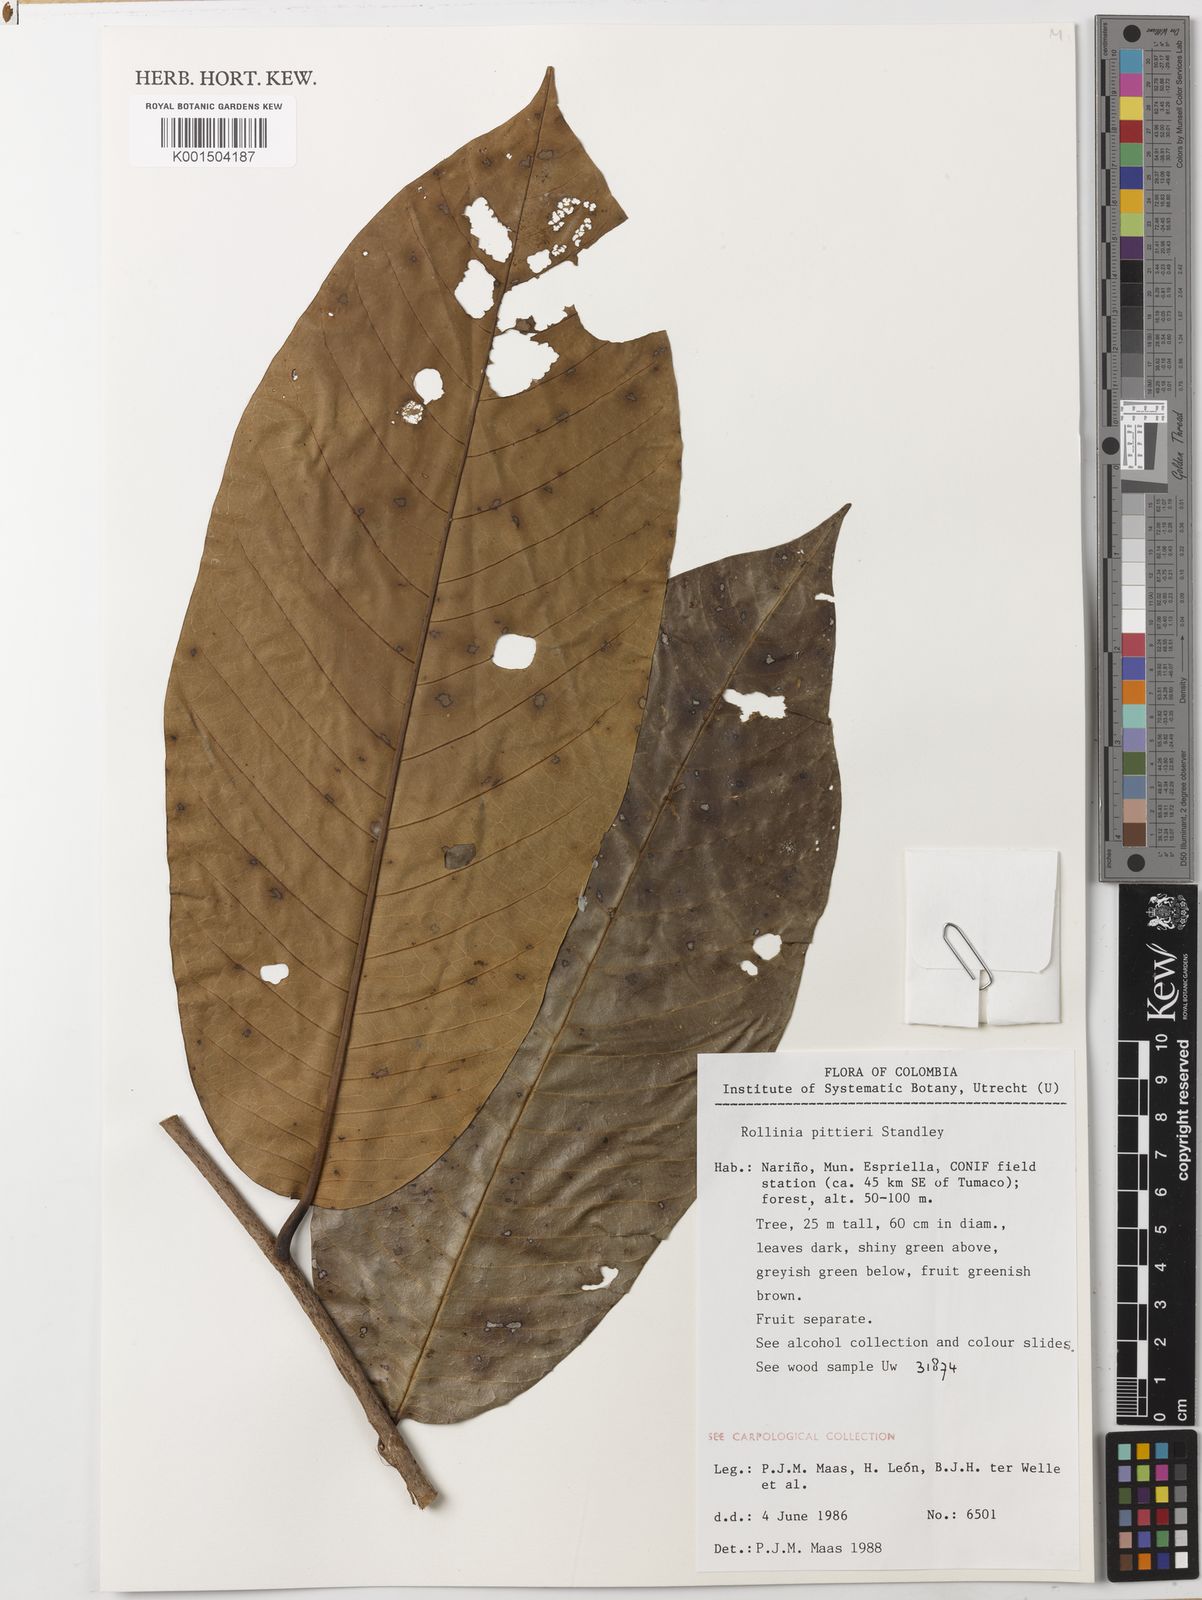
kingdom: Plantae
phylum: Tracheophyta
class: Magnoliopsida
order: Magnoliales
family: Annonaceae
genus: Annona
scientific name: Annona papilionella
